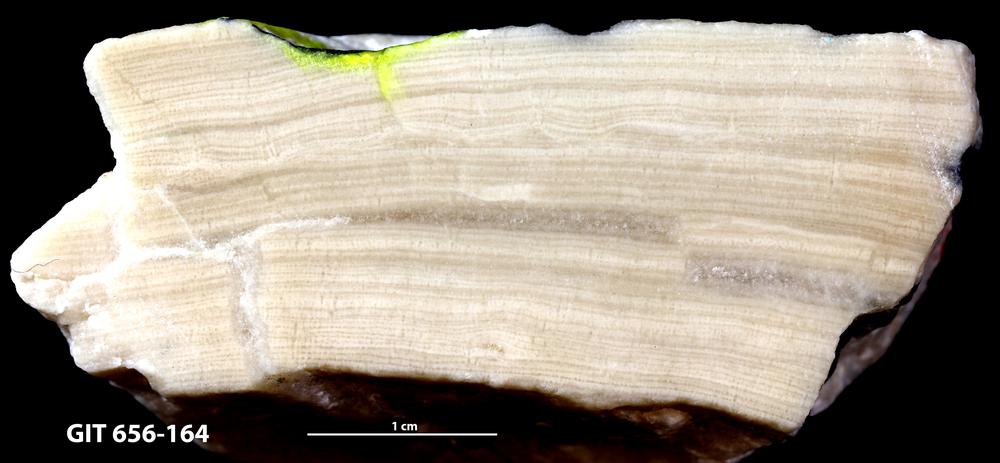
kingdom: Animalia
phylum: Porifera
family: Stromatoporidae
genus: Stromatopora
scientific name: Stromatopora
